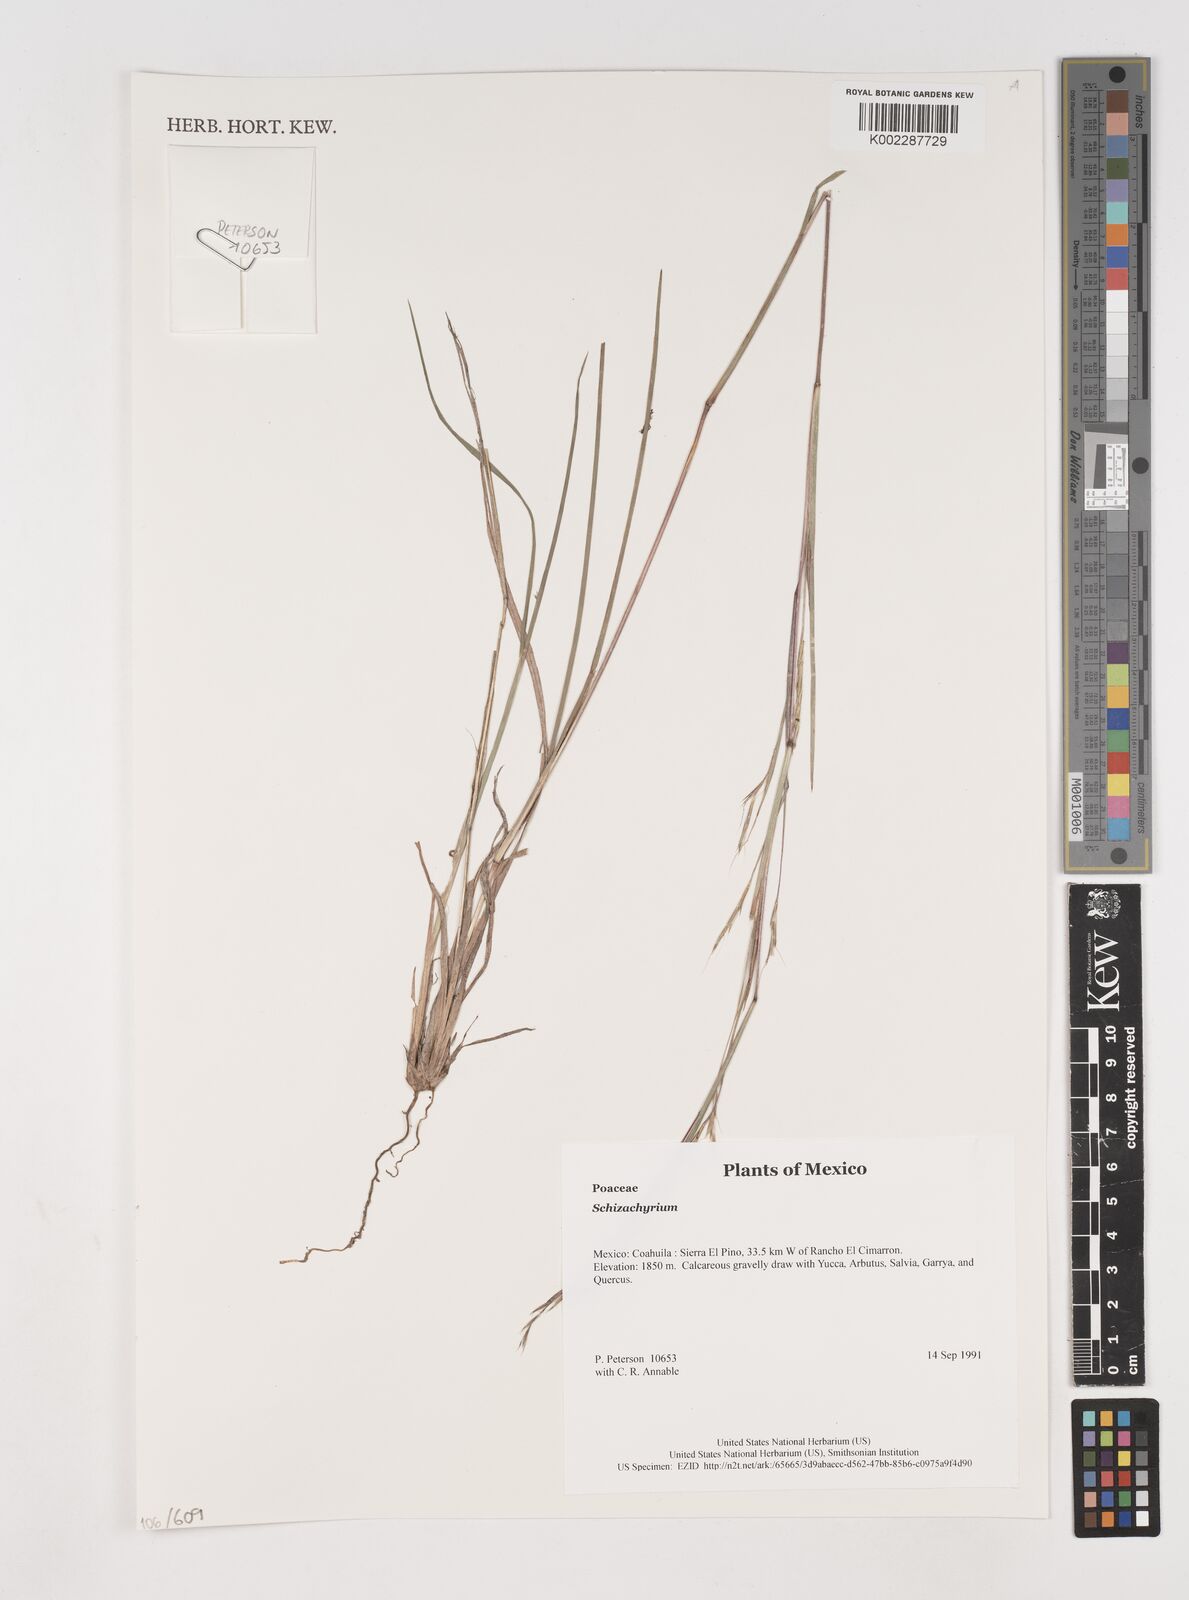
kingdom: Plantae
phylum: Tracheophyta
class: Liliopsida
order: Poales
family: Poaceae
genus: Schizachyrium
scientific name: Schizachyrium
